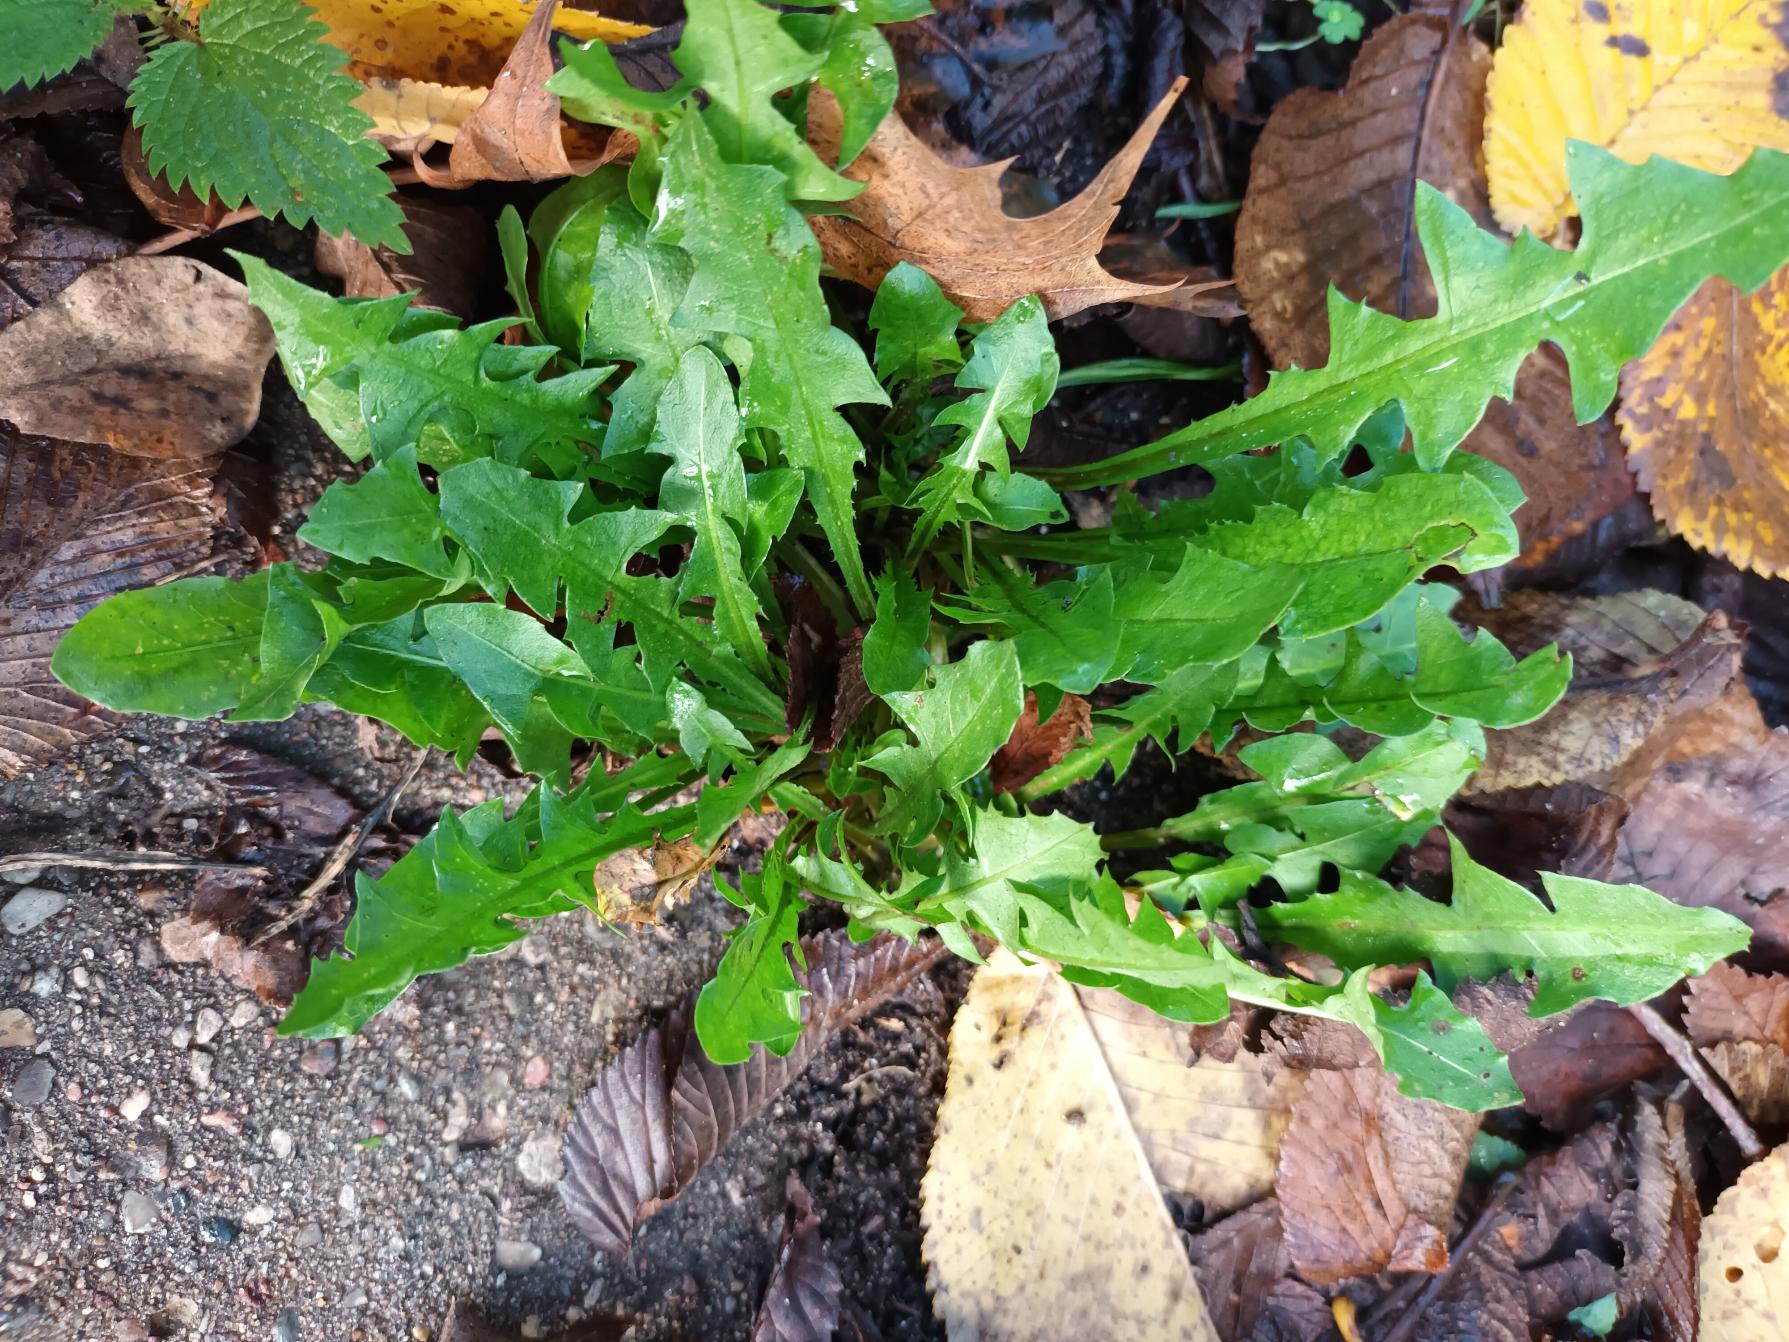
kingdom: Plantae
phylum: Tracheophyta
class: Magnoliopsida
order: Asterales
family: Asteraceae
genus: Taraxacum
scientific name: Taraxacum
